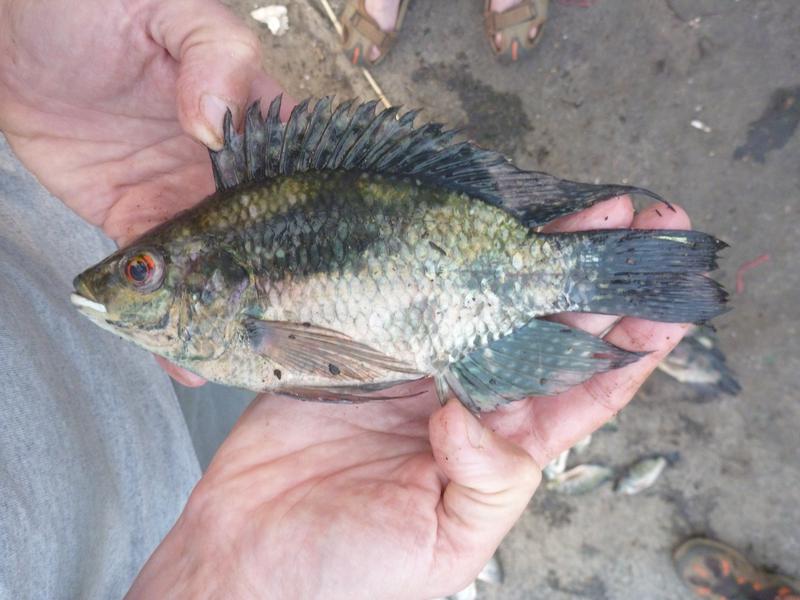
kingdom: Animalia
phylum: Chordata
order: Perciformes
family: Cichlidae
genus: Oreochromis
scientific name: Oreochromis leucostictus
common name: Blue spotted tilapia
